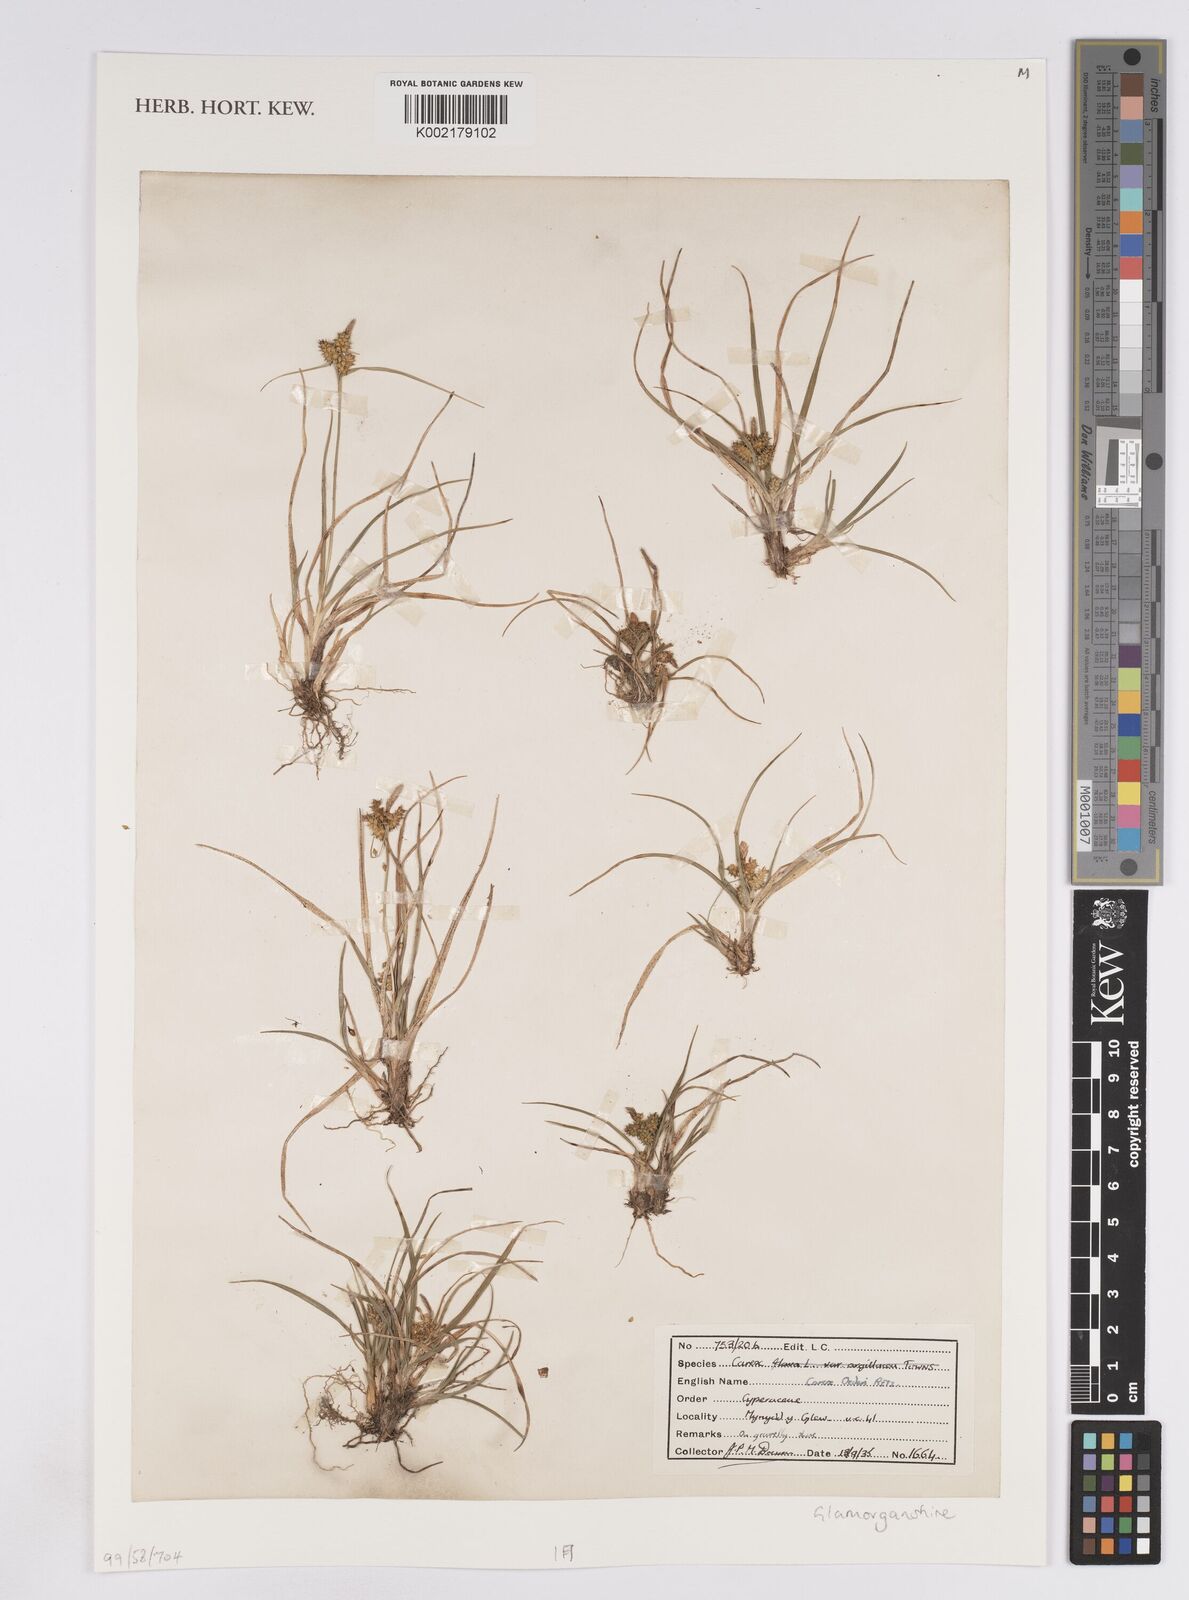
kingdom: Plantae
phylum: Tracheophyta
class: Liliopsida
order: Poales
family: Cyperaceae
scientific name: Cyperaceae
